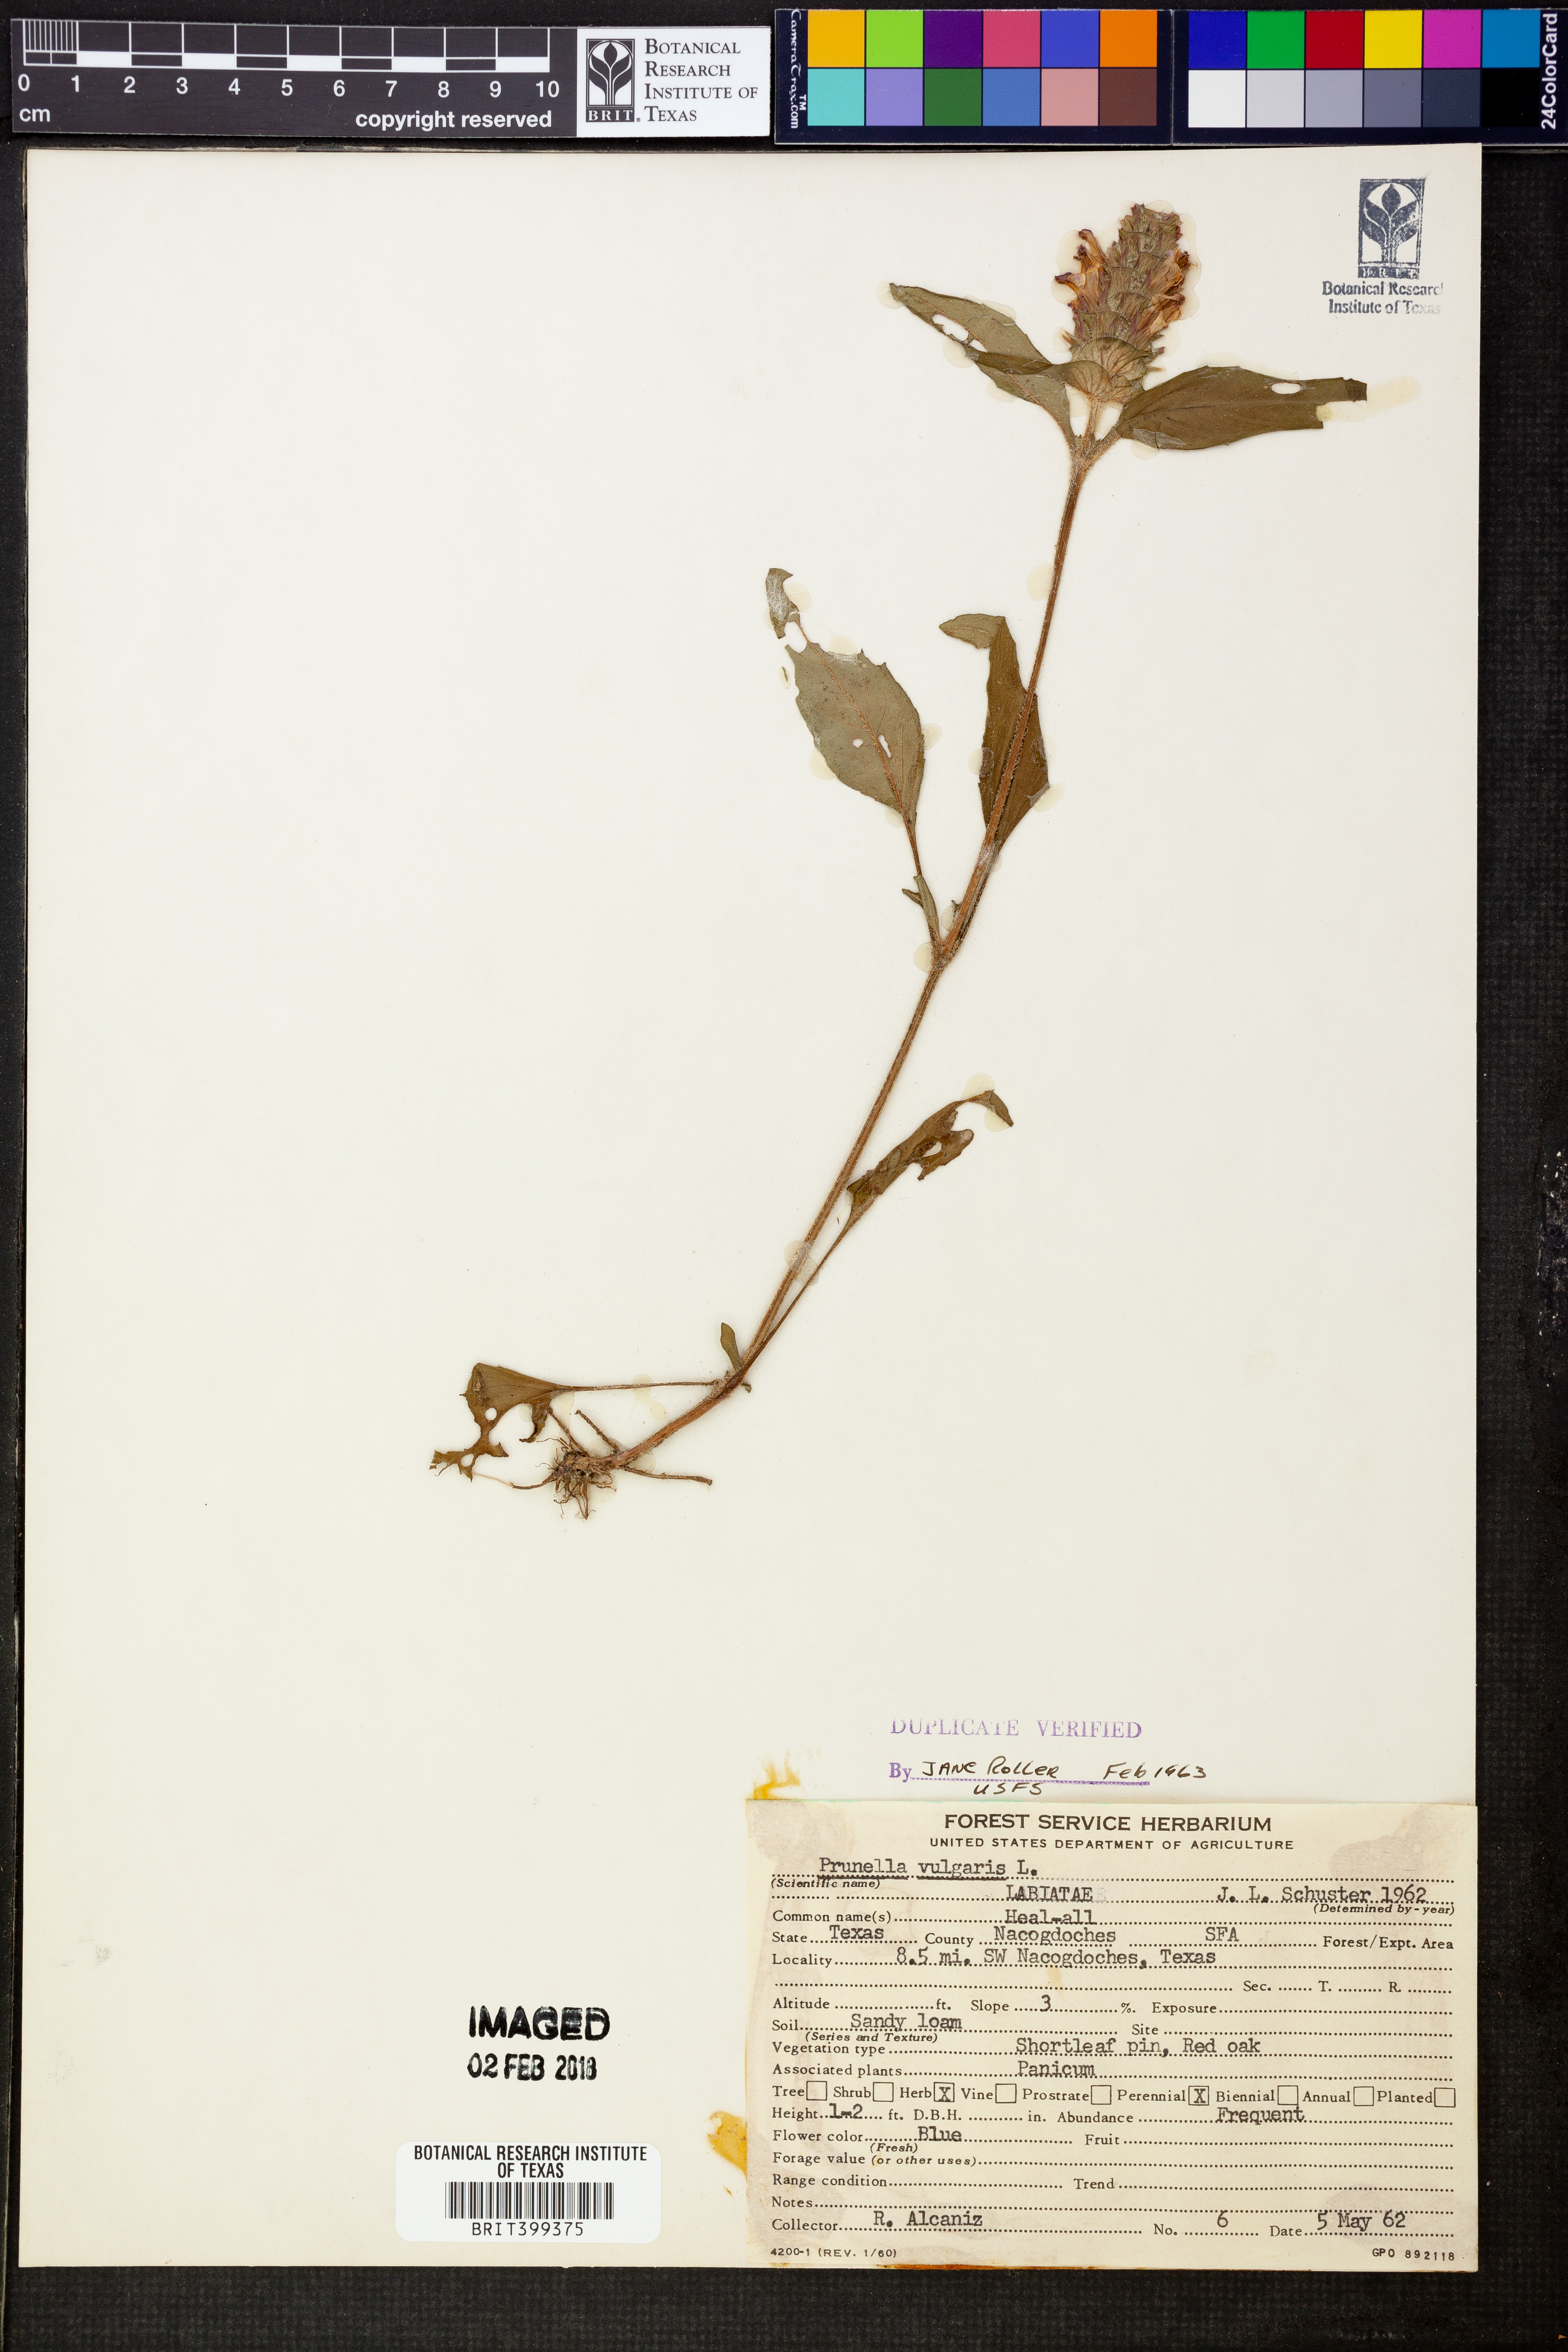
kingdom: Plantae
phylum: Tracheophyta
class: Magnoliopsida
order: Lamiales
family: Lamiaceae
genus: Prunella
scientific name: Prunella vulgaris
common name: Heal-all
